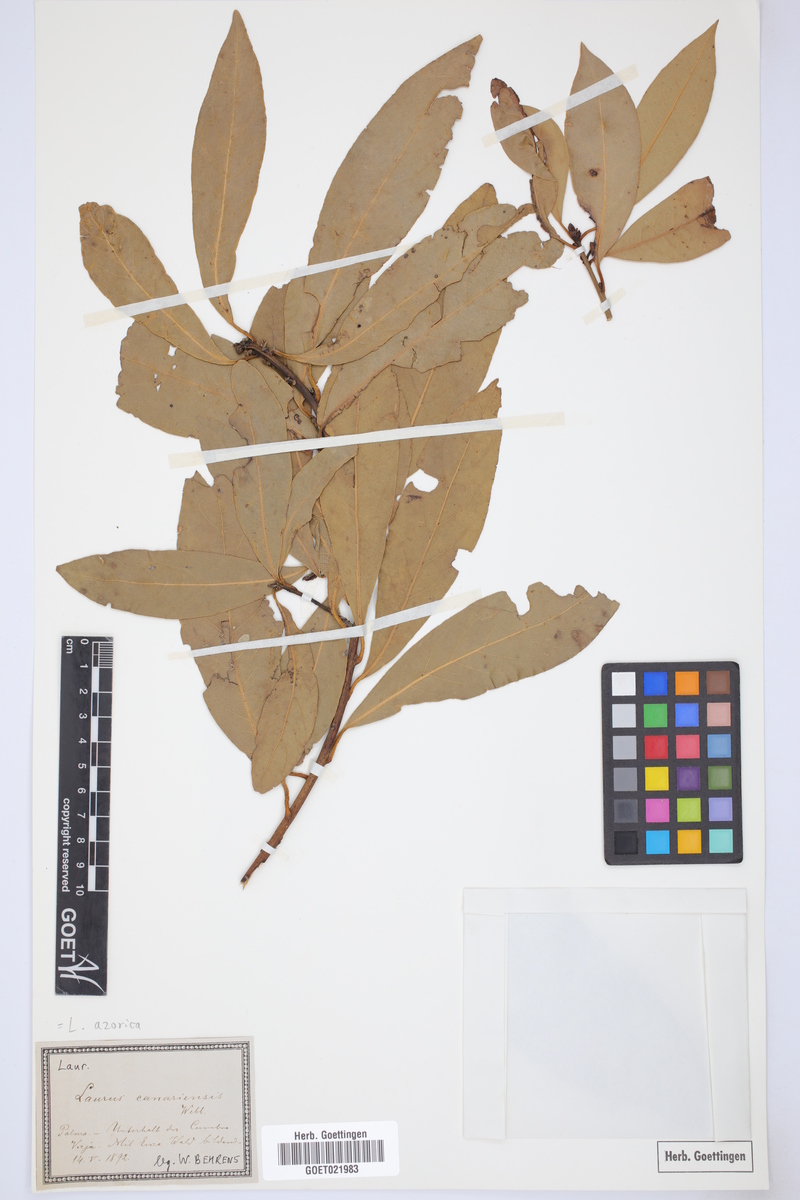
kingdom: Plantae
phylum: Tracheophyta
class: Magnoliopsida
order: Laurales
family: Lauraceae
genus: Laurus
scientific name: Laurus azorica
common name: Macaronesian laurel
